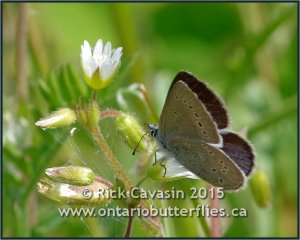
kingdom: Animalia
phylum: Arthropoda
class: Insecta
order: Lepidoptera
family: Lycaenidae
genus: Glaucopsyche
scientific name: Glaucopsyche lygdamus
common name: Silvery Blue
